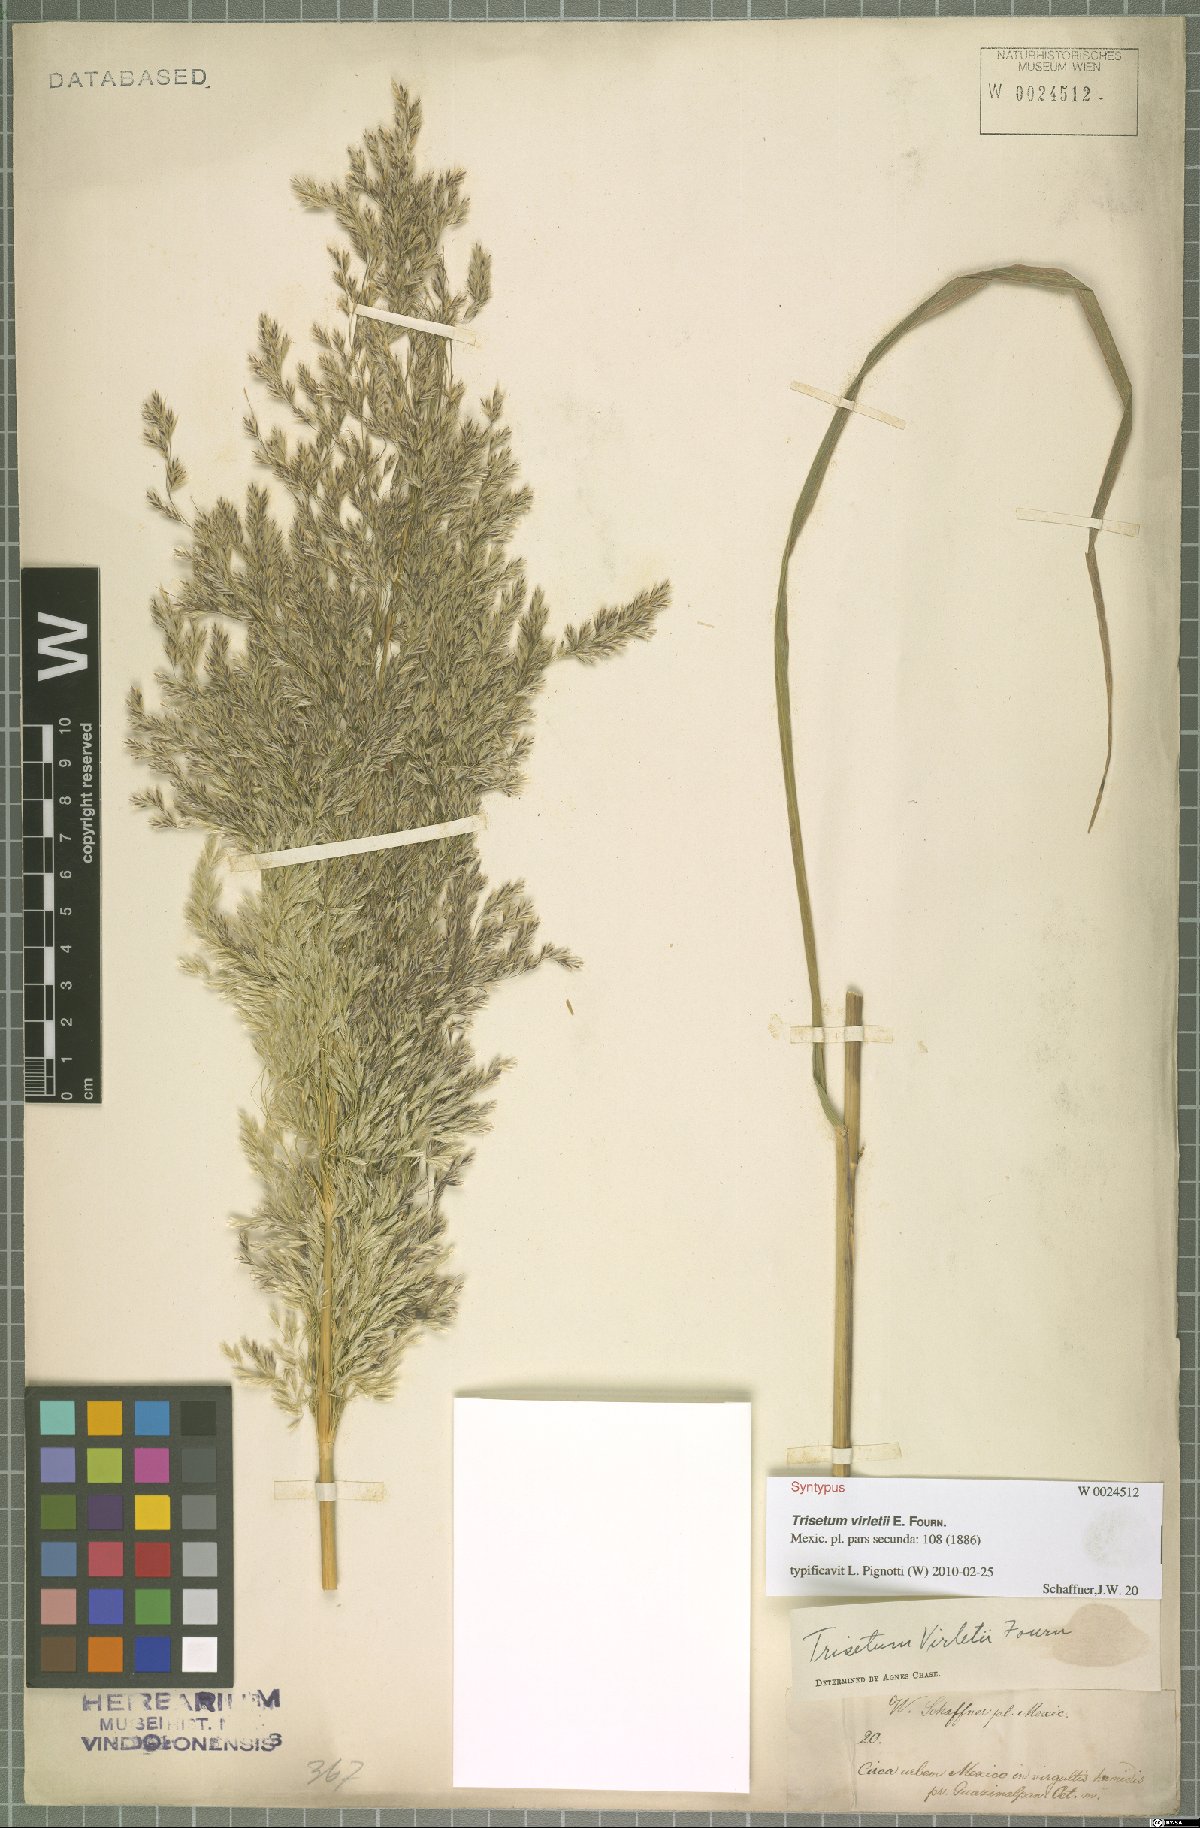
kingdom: Plantae
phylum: Tracheophyta
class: Liliopsida
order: Poales
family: Poaceae
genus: Peyritschia
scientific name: Peyritschia virletii
